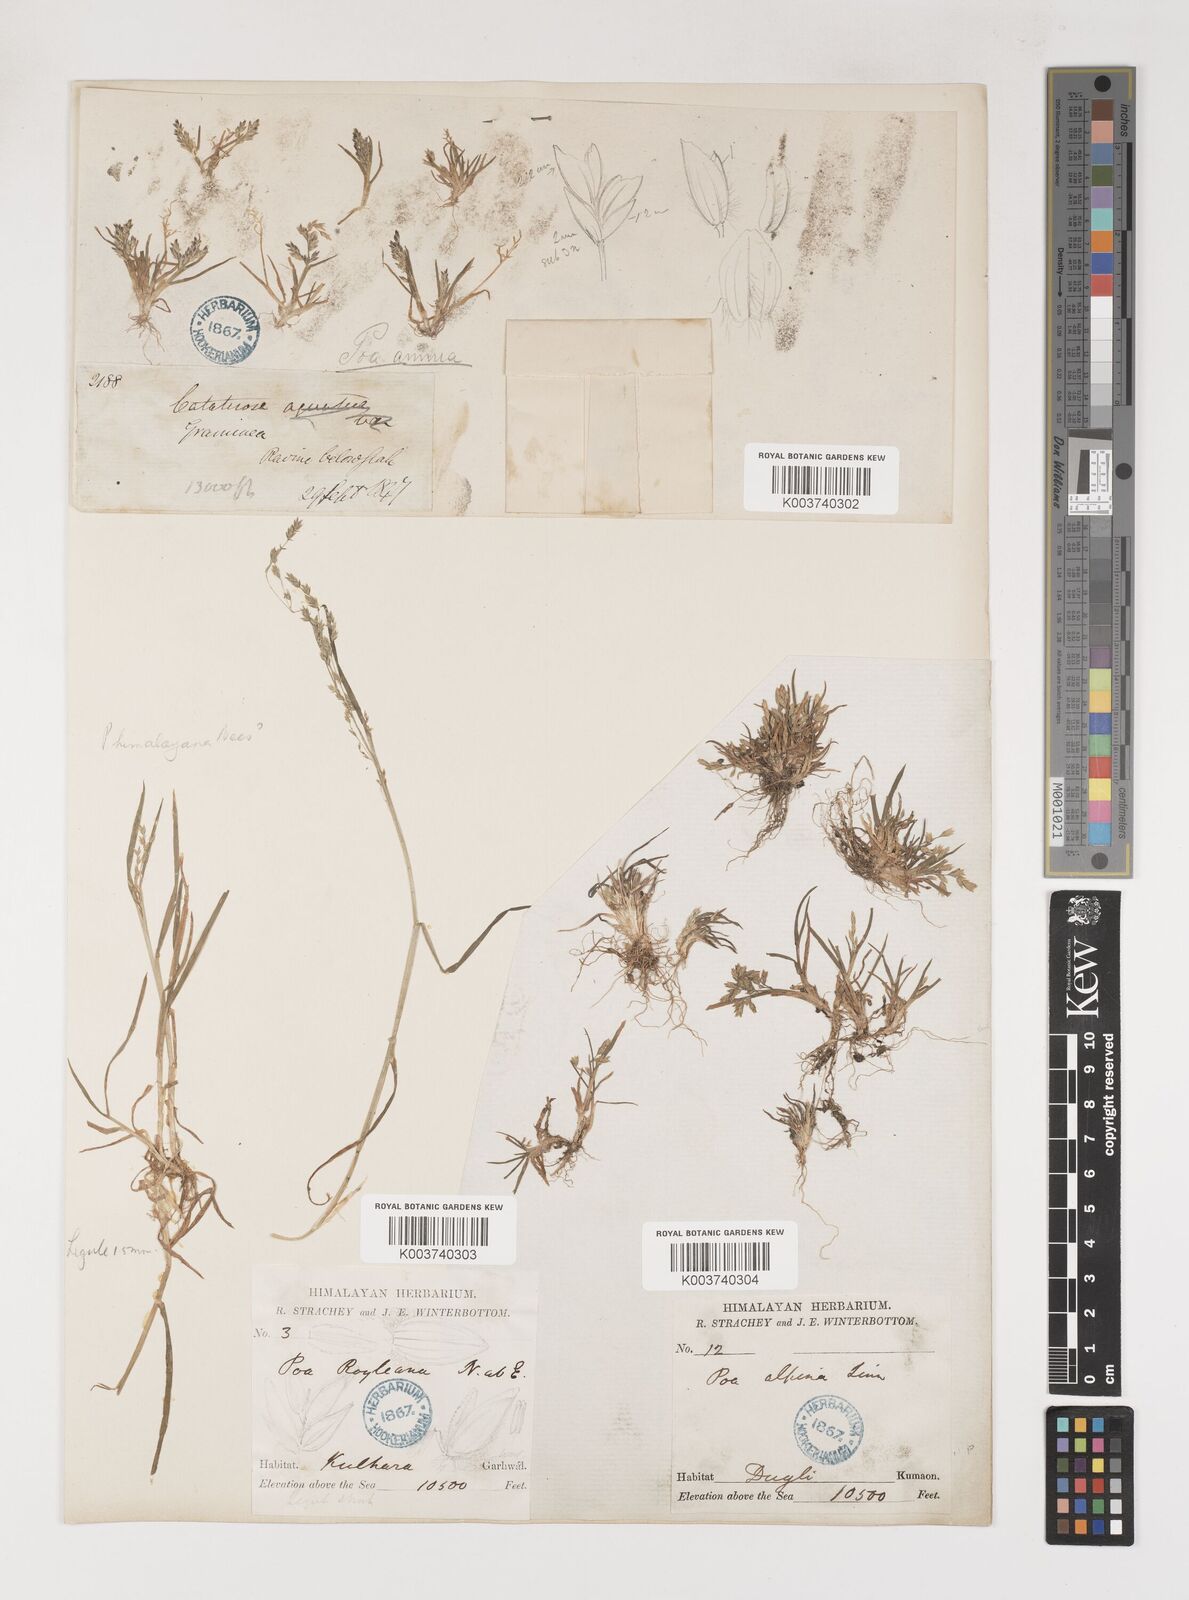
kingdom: Plantae
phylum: Tracheophyta
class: Liliopsida
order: Poales
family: Poaceae
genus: Poa
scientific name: Poa annua
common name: Annual bluegrass
